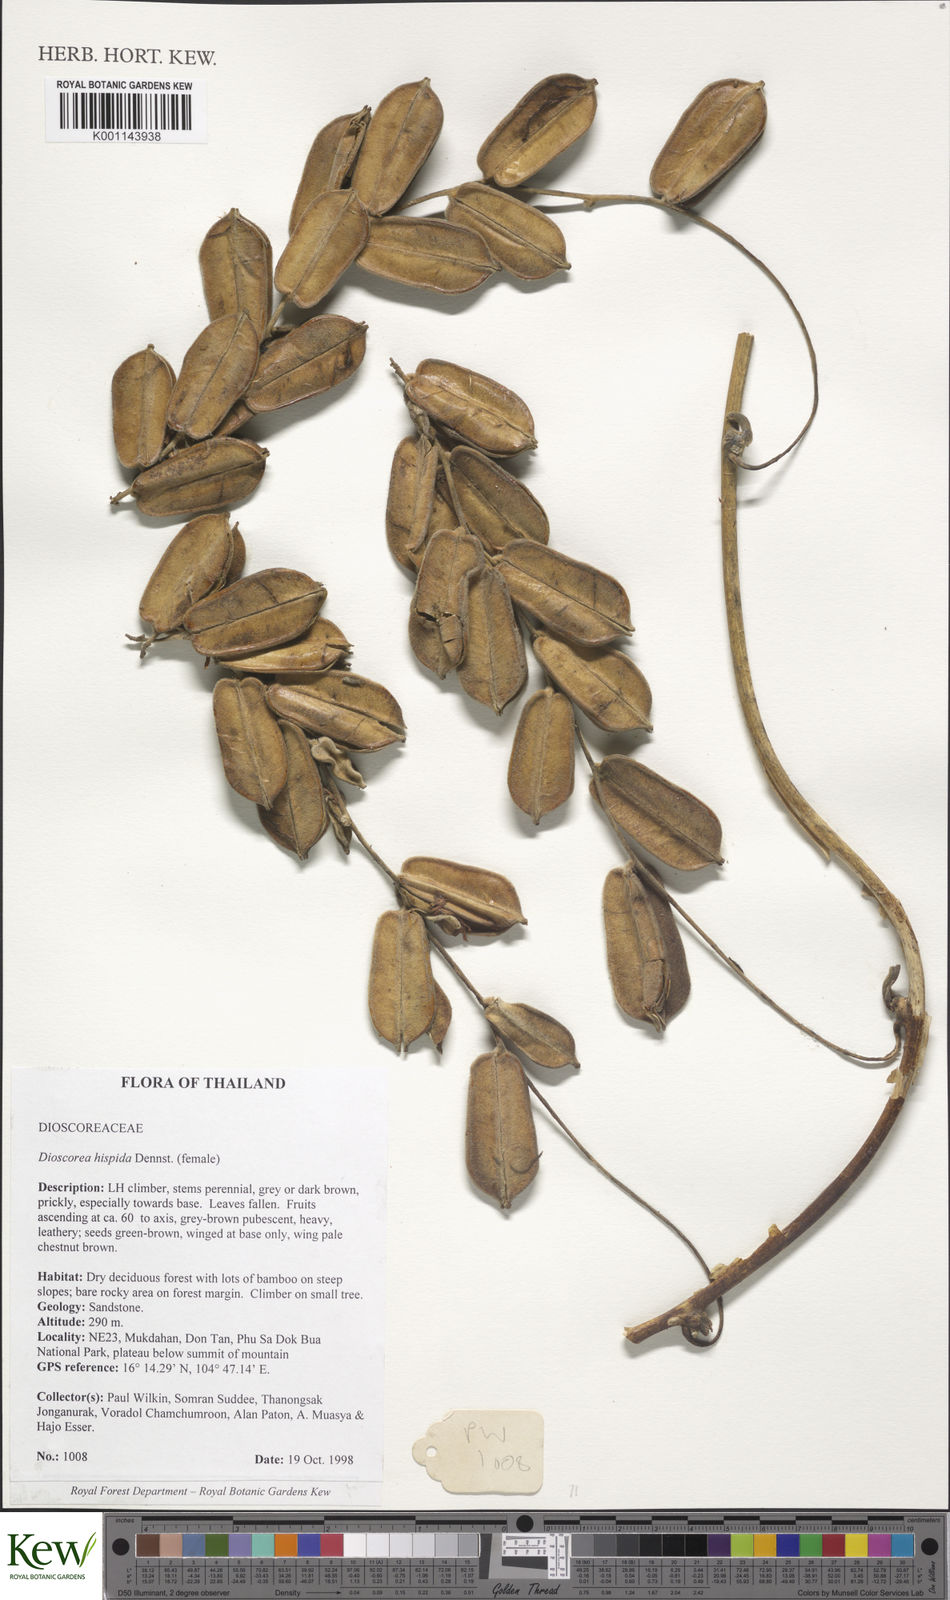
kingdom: Plantae
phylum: Tracheophyta
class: Liliopsida
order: Dioscoreales
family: Dioscoreaceae
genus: Dioscorea
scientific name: Dioscorea hispida
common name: Asiatic bitter yam
